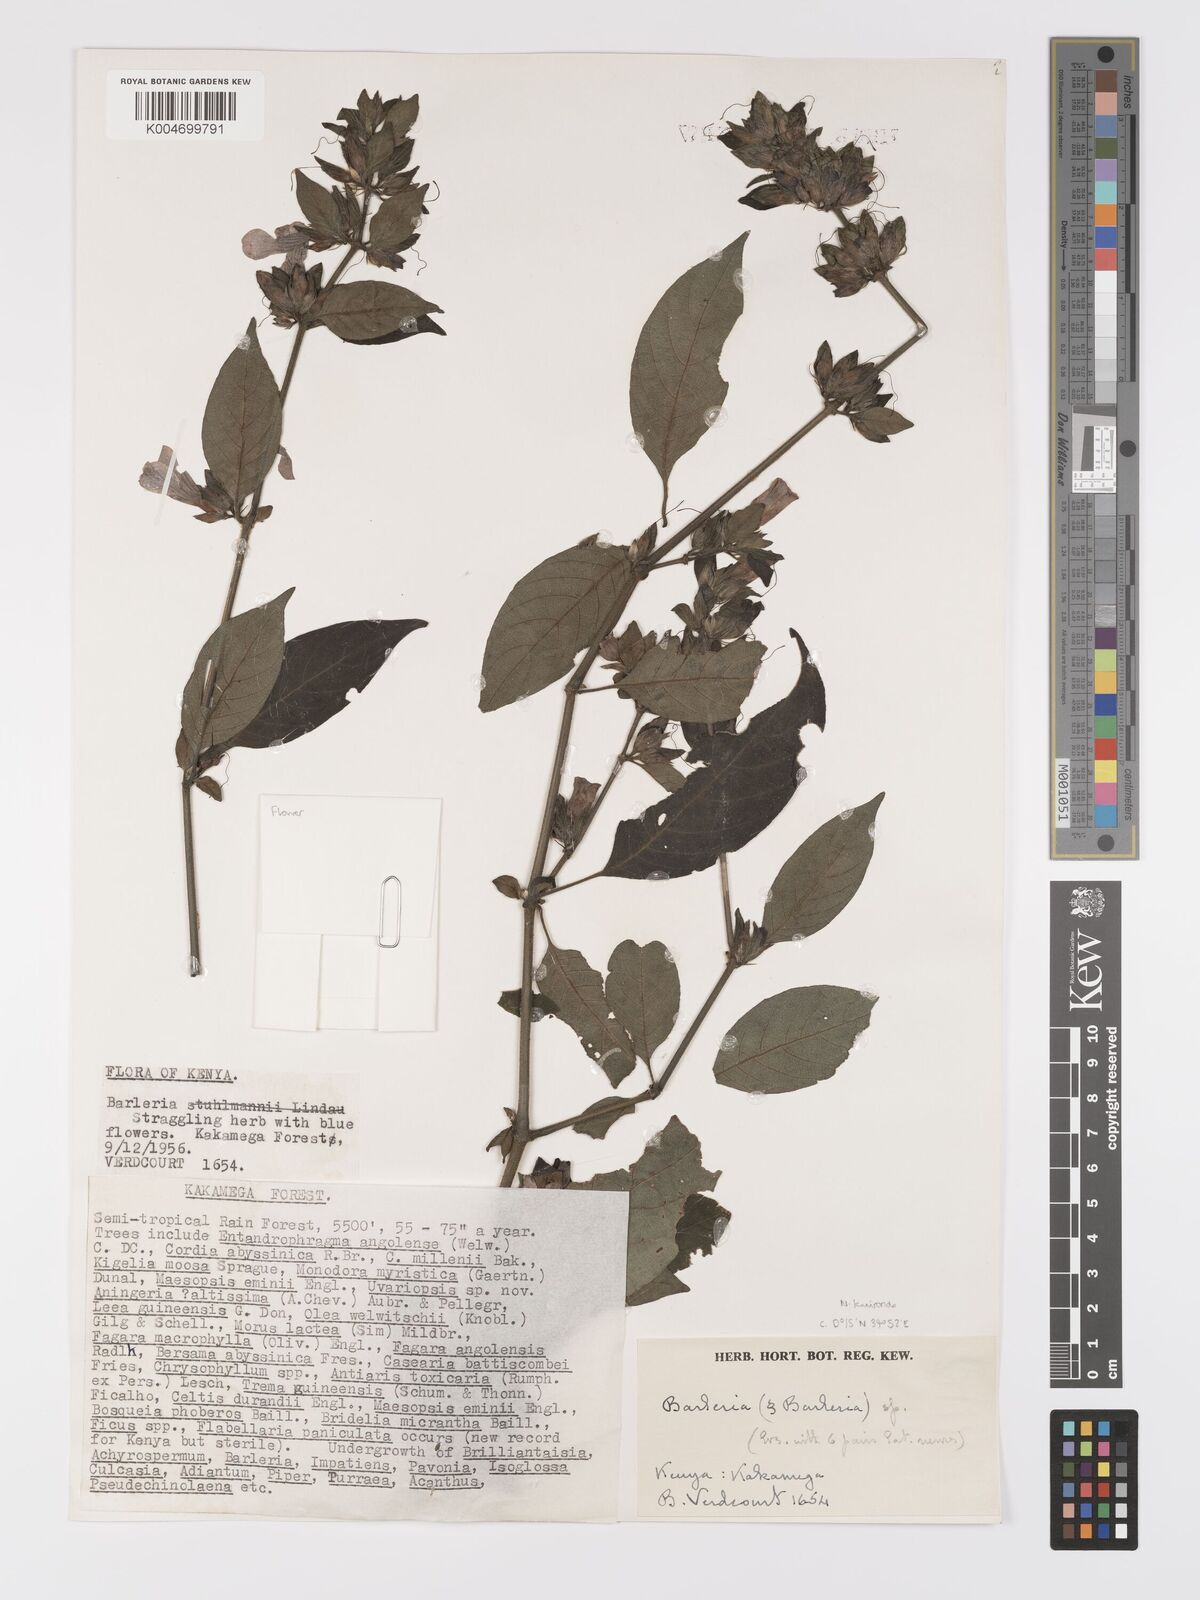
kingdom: Plantae
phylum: Tracheophyta
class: Magnoliopsida
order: Lamiales
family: Acanthaceae
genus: Barleria
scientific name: Barleria ventricosa
